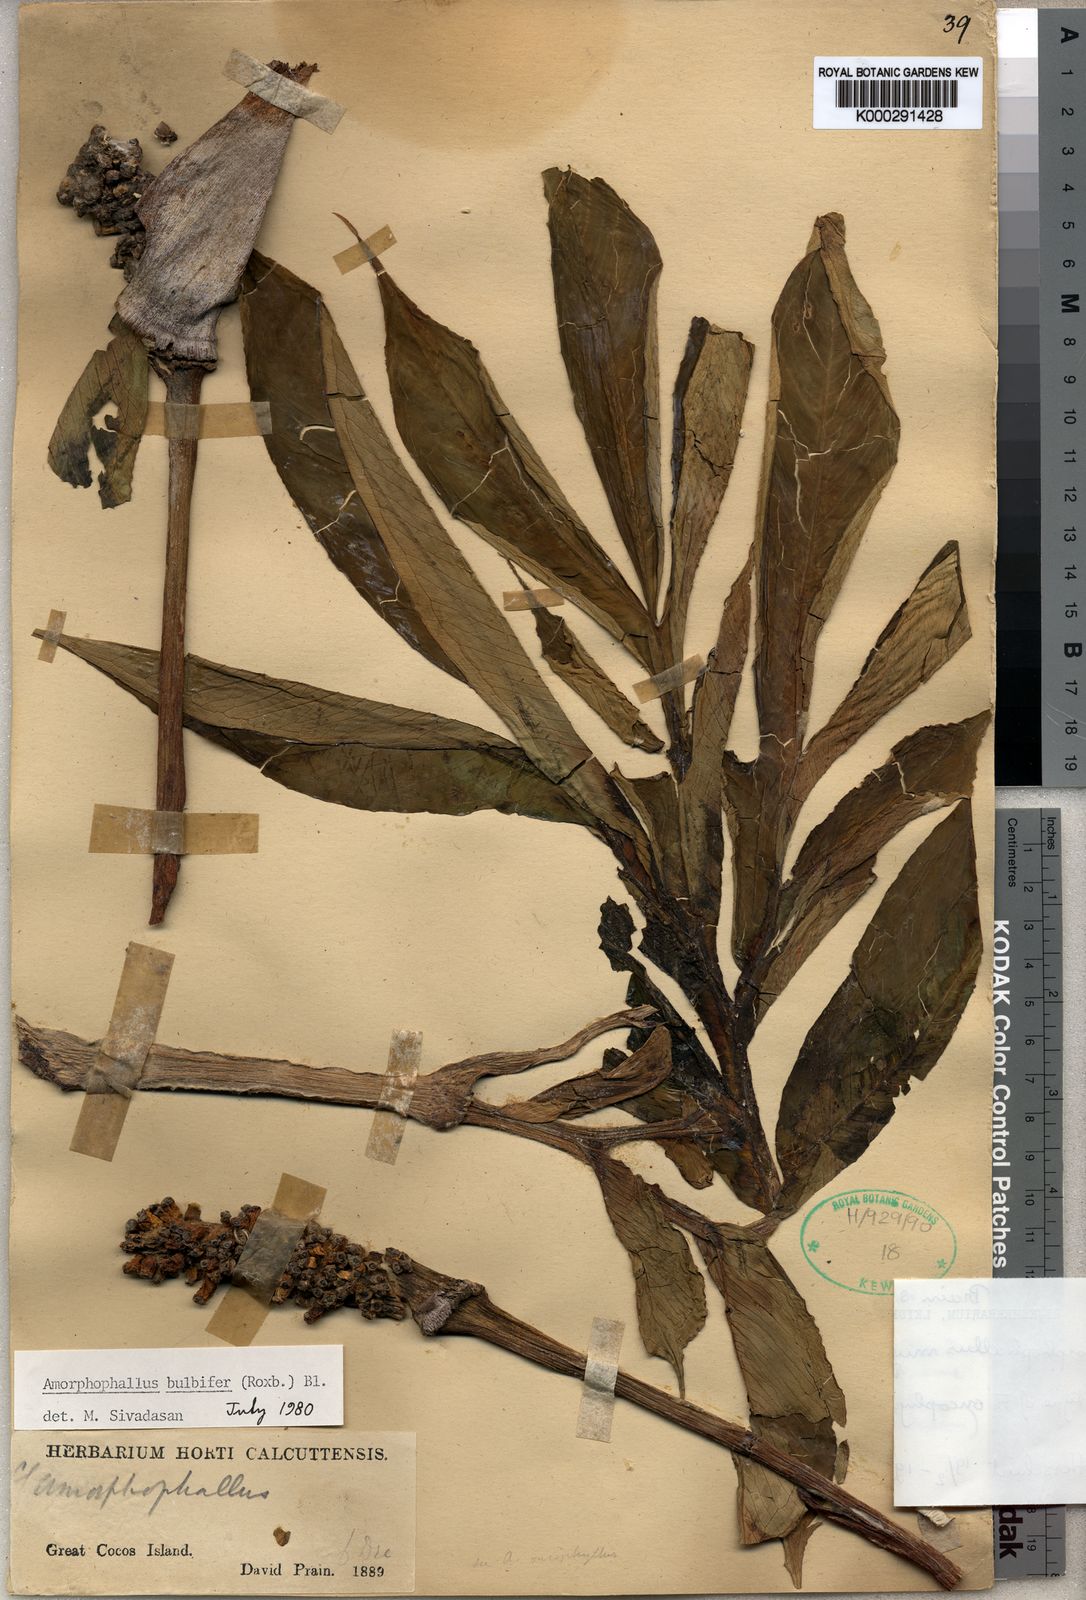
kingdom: Plantae
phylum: Tracheophyta
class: Liliopsida
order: Alismatales
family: Araceae
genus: Amorphophallus
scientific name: Amorphophallus muelleri
